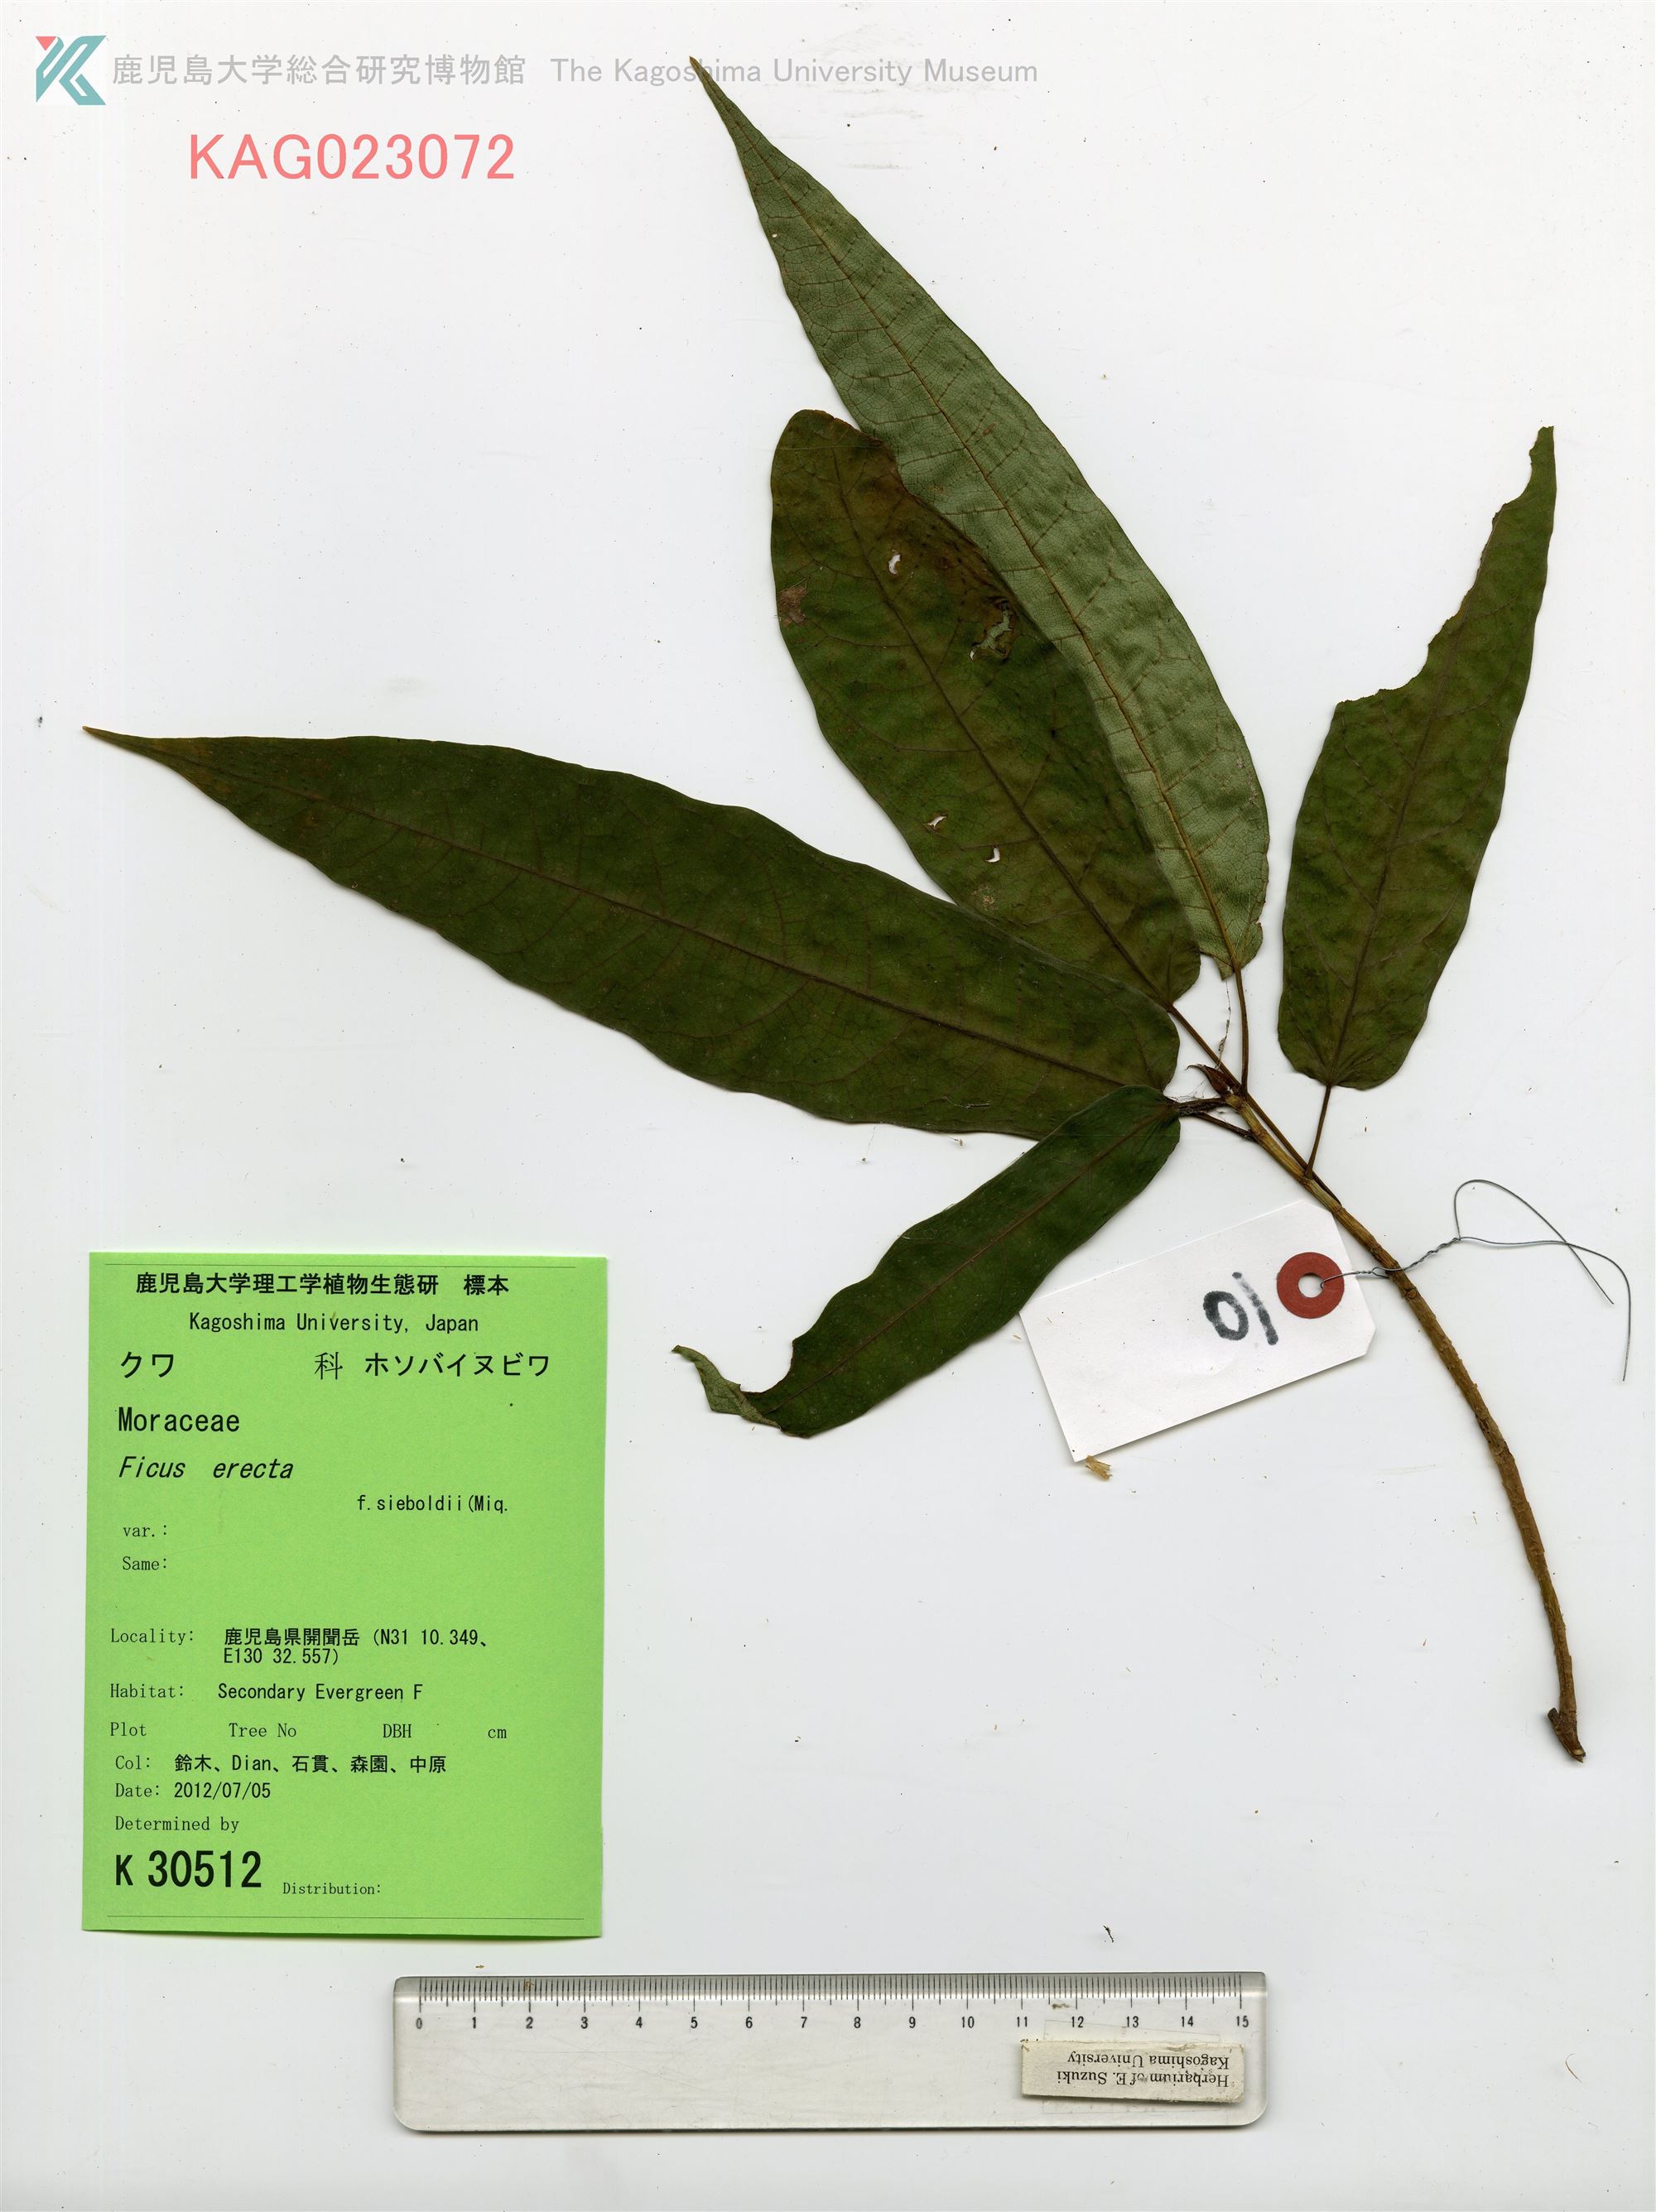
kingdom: Plantae
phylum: Tracheophyta
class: Magnoliopsida
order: Rosales
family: Moraceae
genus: Ficus
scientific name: Ficus erecta
